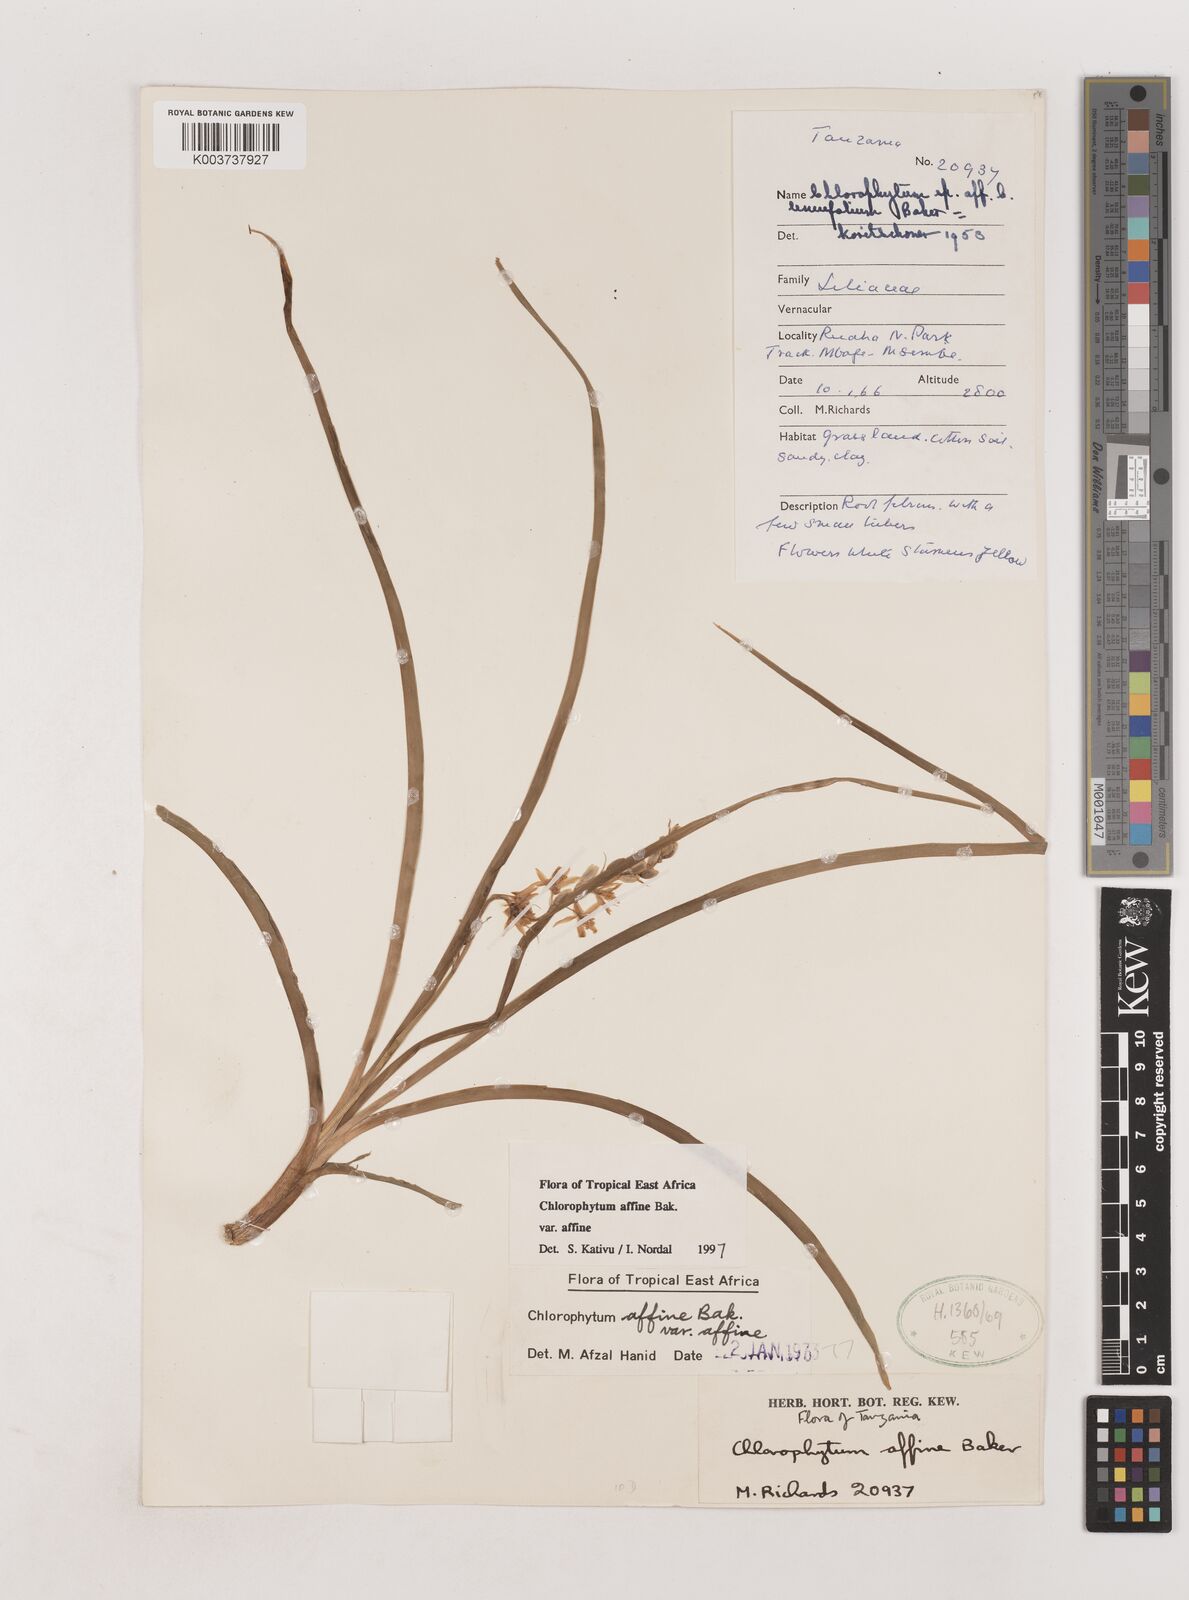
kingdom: Plantae
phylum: Tracheophyta
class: Liliopsida
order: Asparagales
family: Asparagaceae
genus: Chlorophytum
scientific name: Chlorophytum affine
